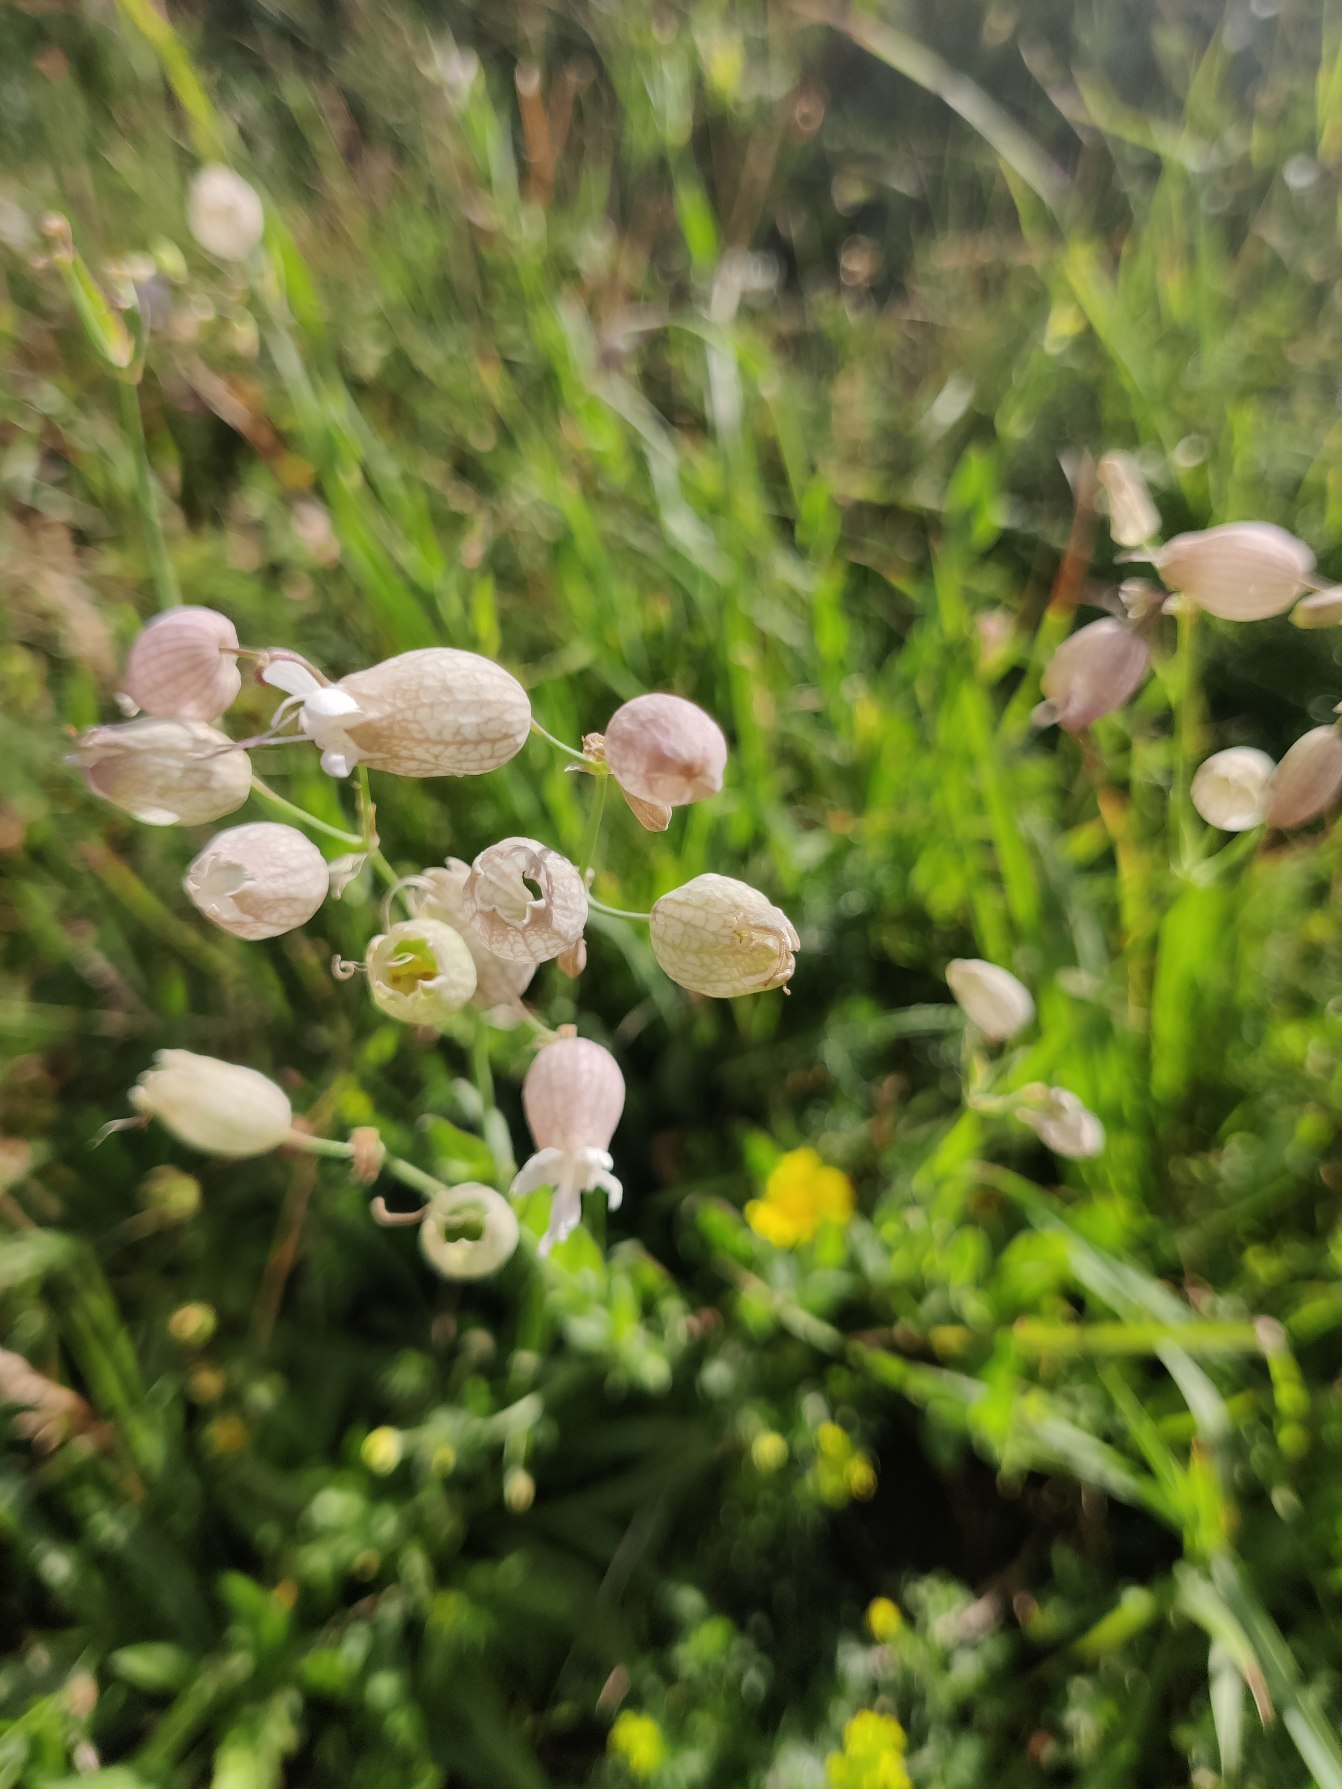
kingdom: Plantae
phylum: Tracheophyta
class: Magnoliopsida
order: Caryophyllales
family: Caryophyllaceae
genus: Silene
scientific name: Silene vulgaris
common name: Blæresmælde
